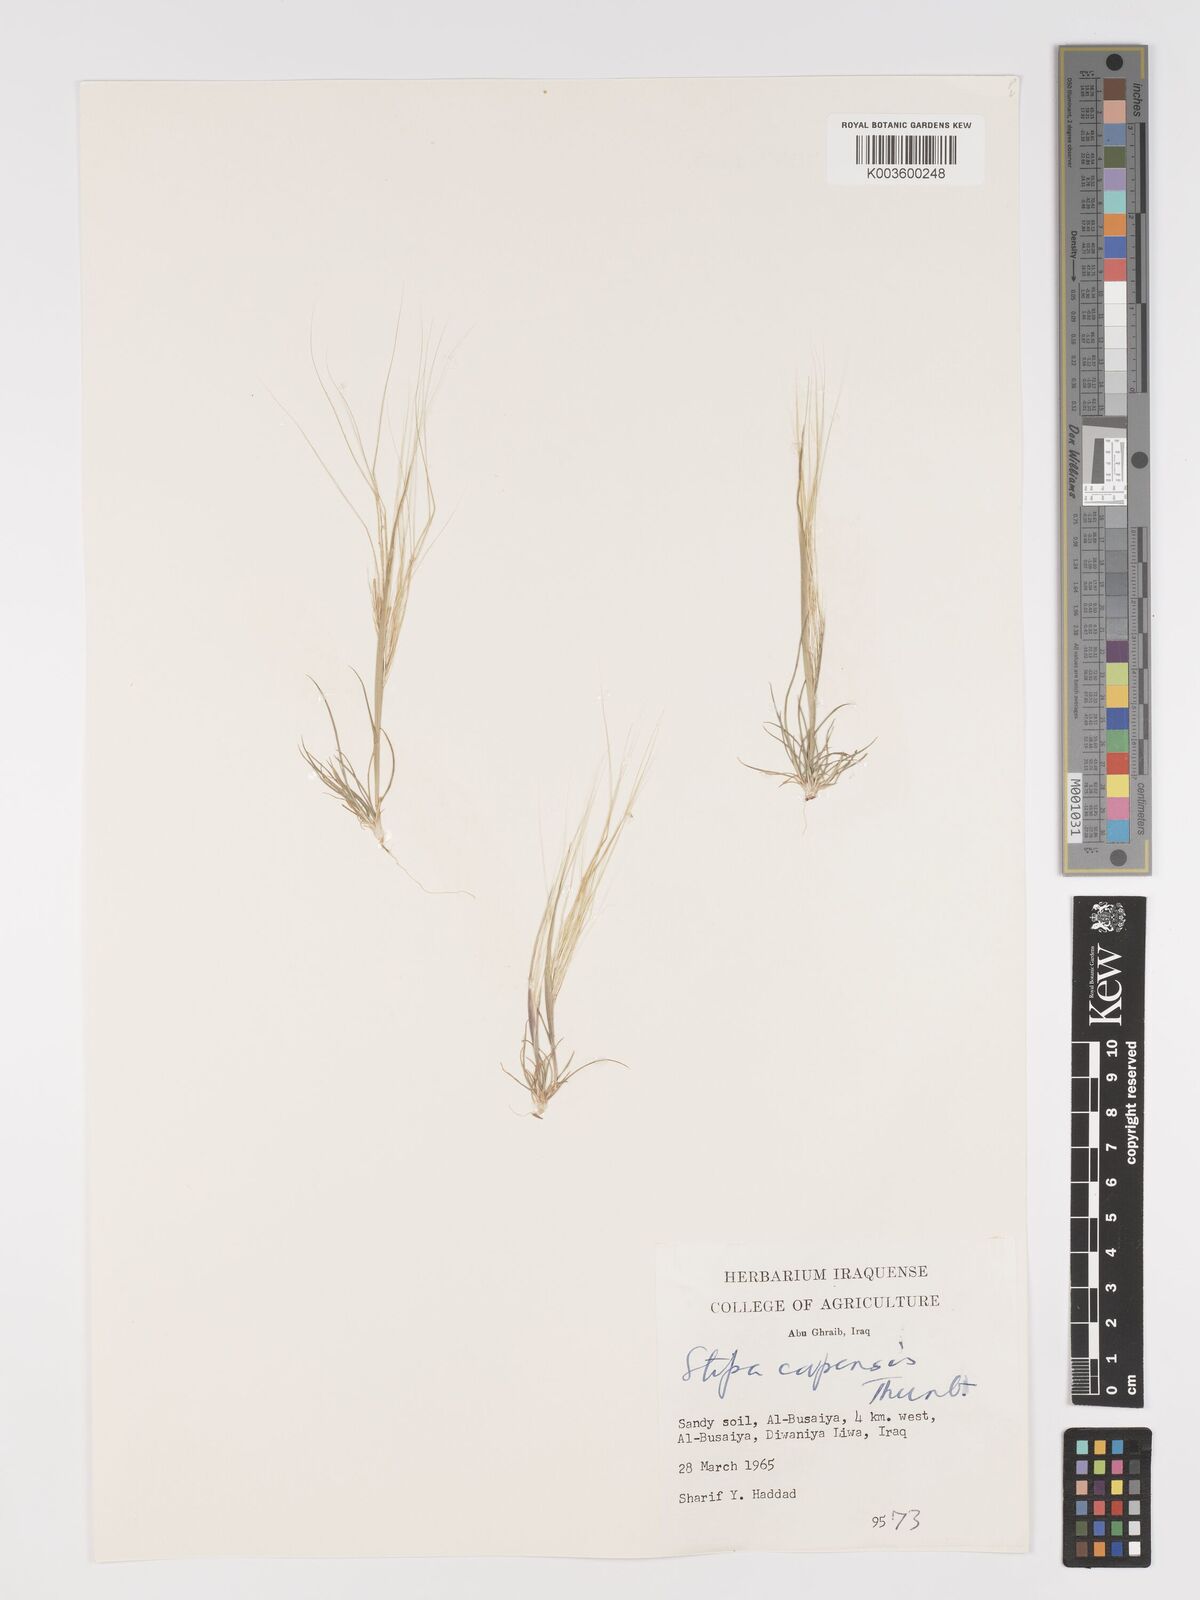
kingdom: Plantae
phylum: Tracheophyta
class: Liliopsida
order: Poales
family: Poaceae
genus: Stipellula
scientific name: Stipellula capensis
